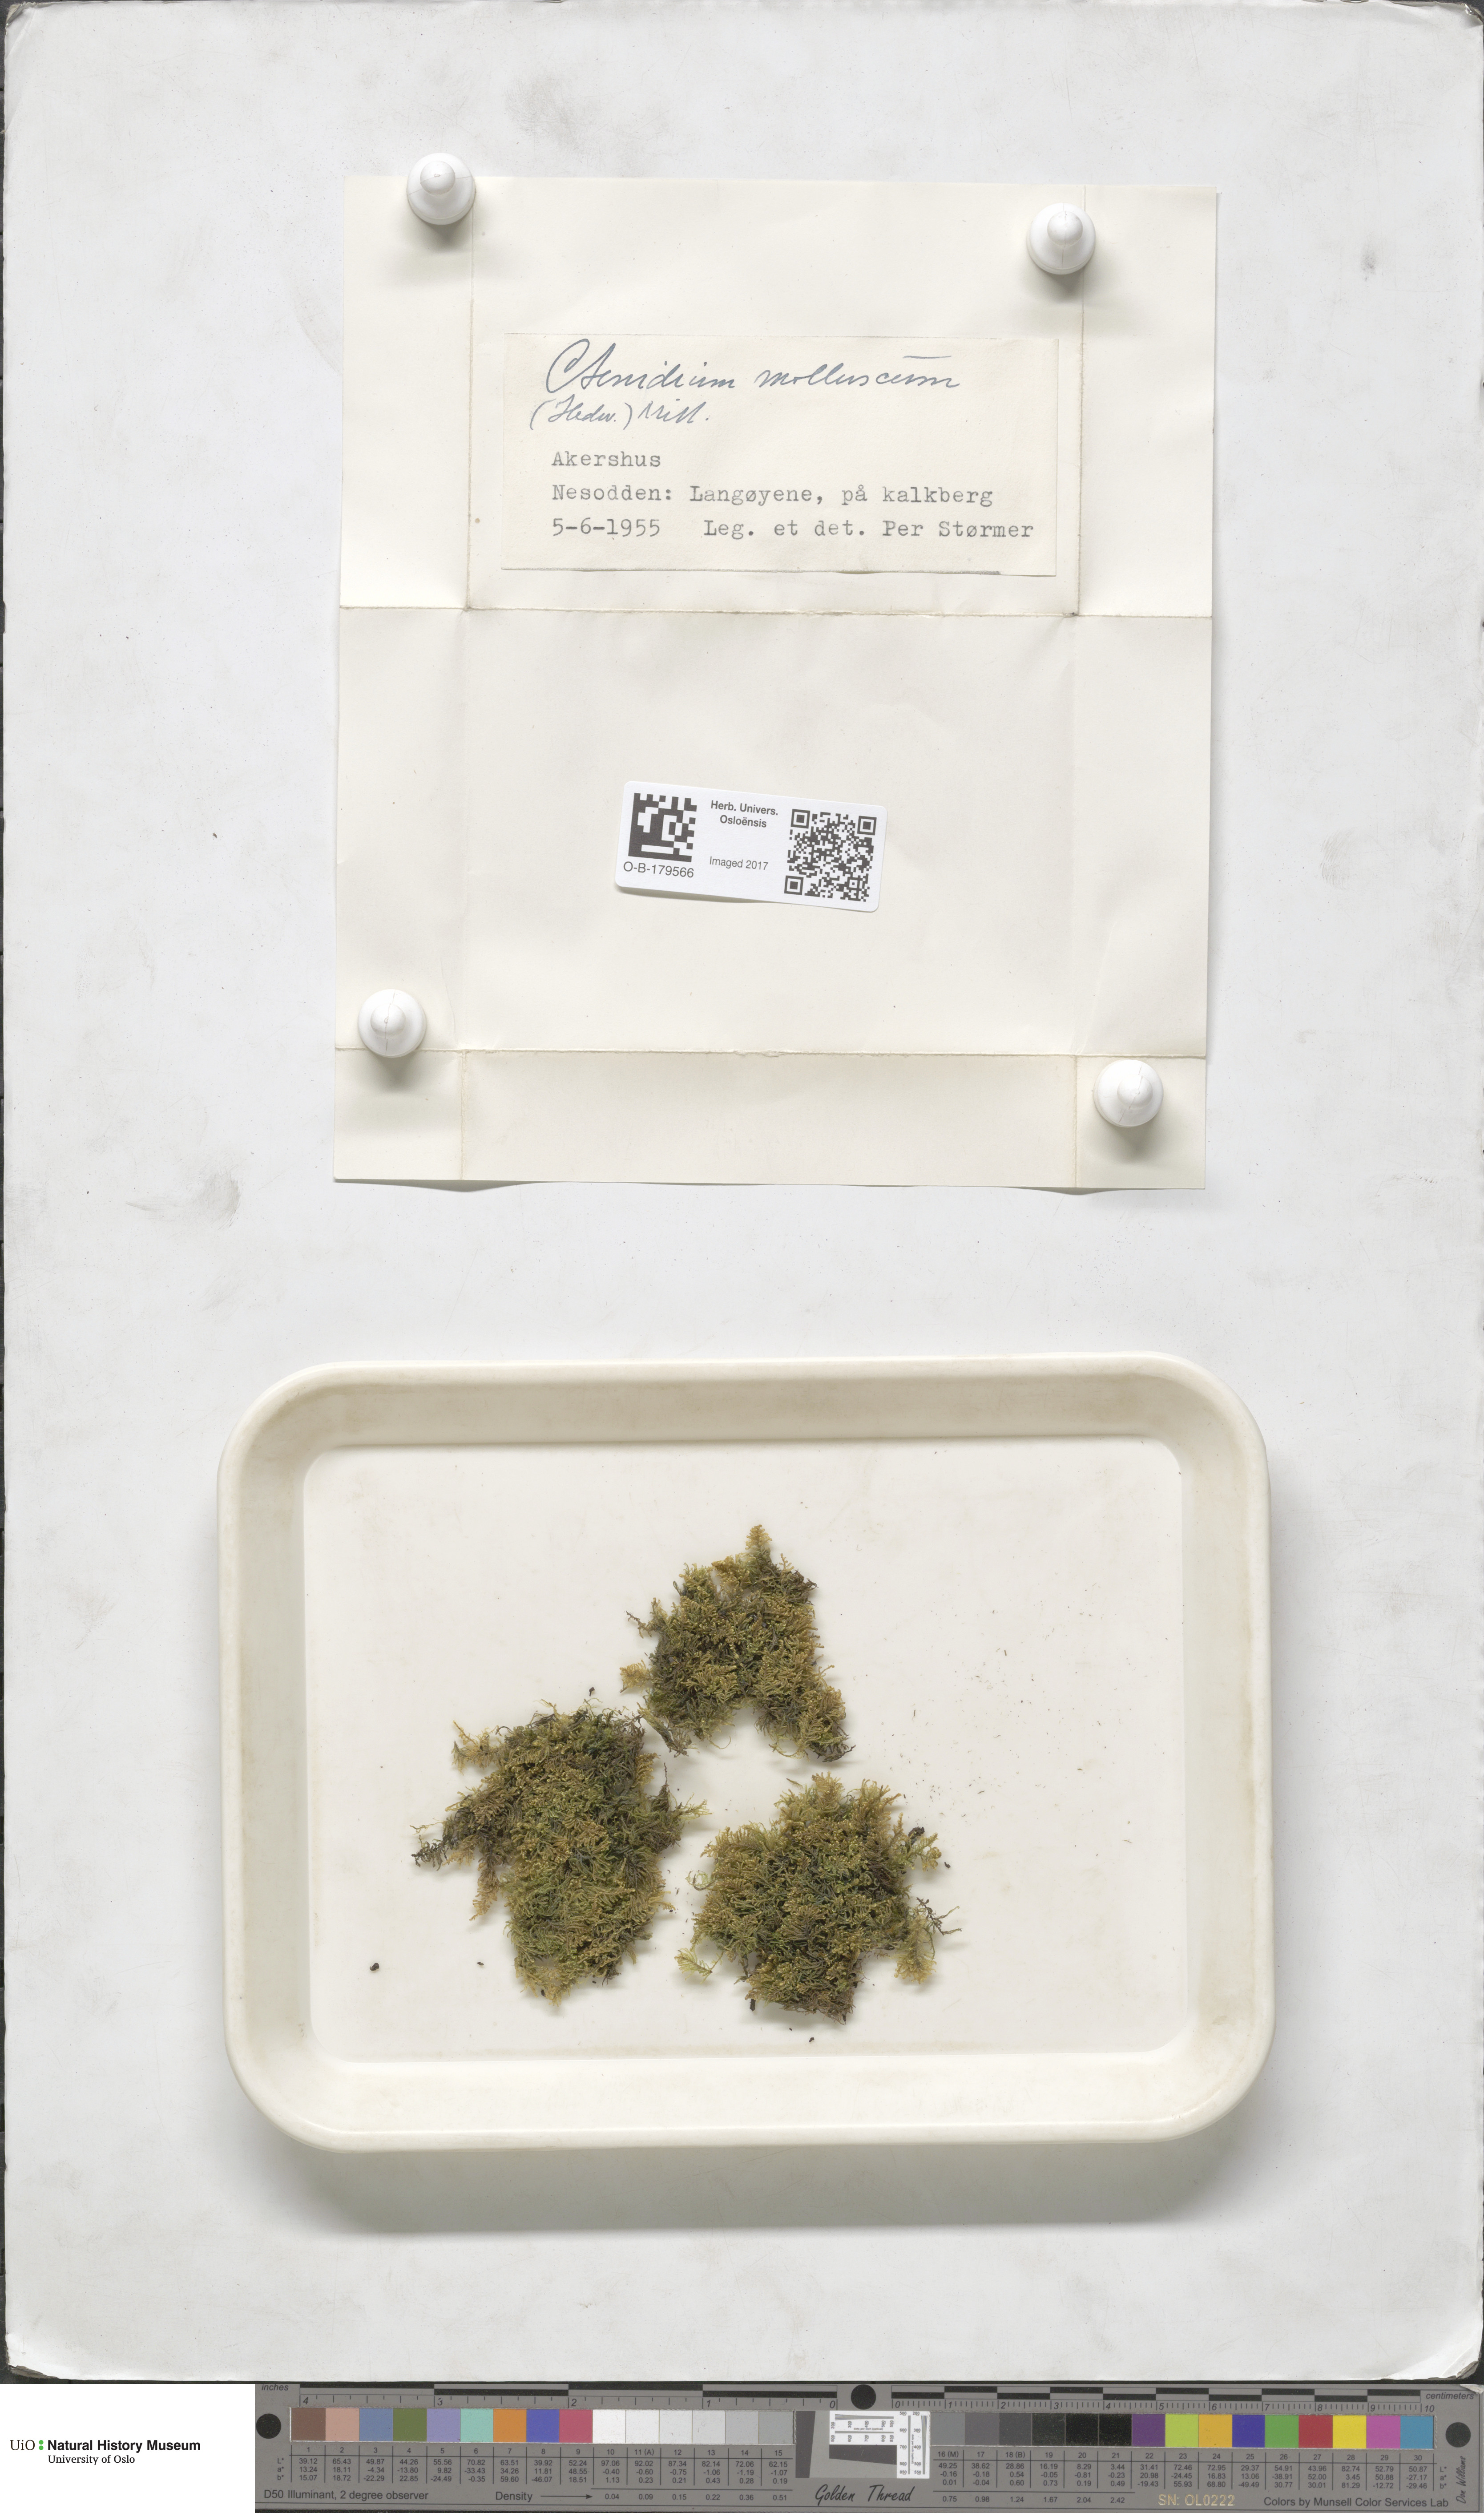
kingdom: Plantae
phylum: Bryophyta
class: Bryopsida
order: Hypnales
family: Myuriaceae
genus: Ctenidium
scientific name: Ctenidium molluscum
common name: Chalk comb-moss
